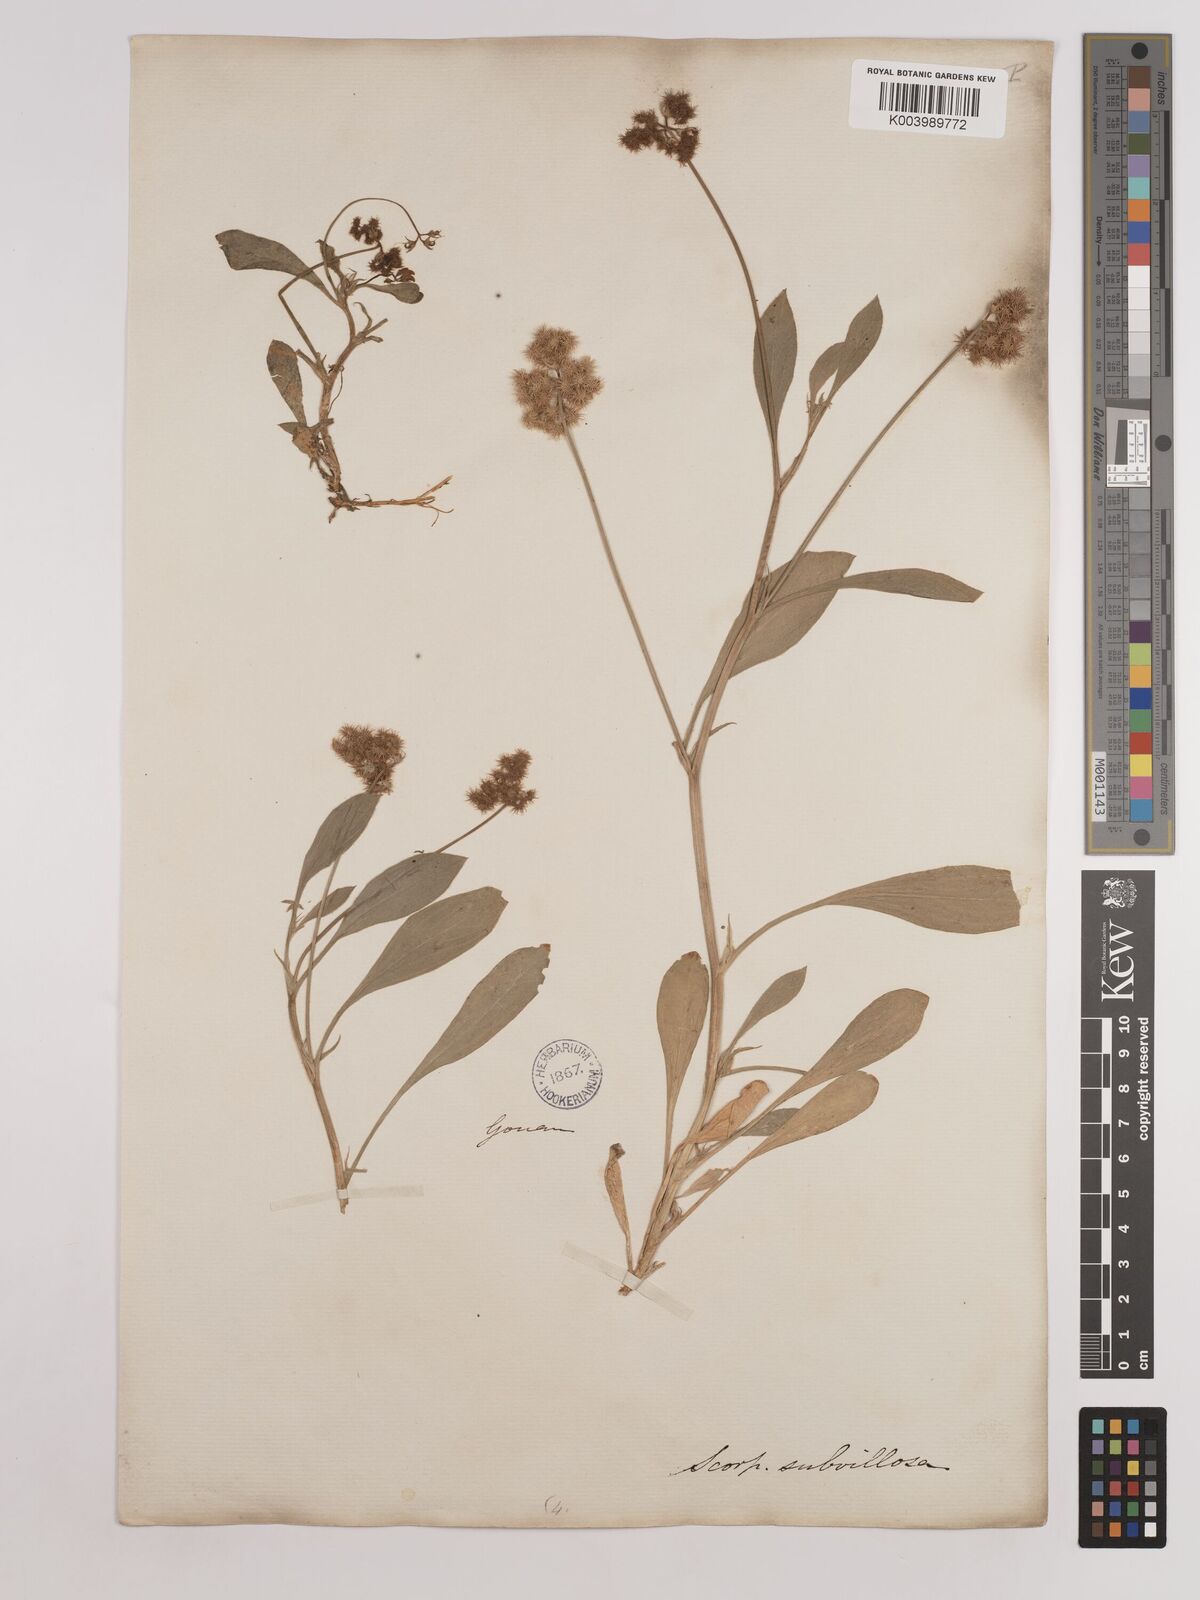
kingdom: Plantae
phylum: Tracheophyta
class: Magnoliopsida
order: Fabales
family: Fabaceae
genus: Scorpiurus
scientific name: Scorpiurus muricatus
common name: Caterpillar-plant
